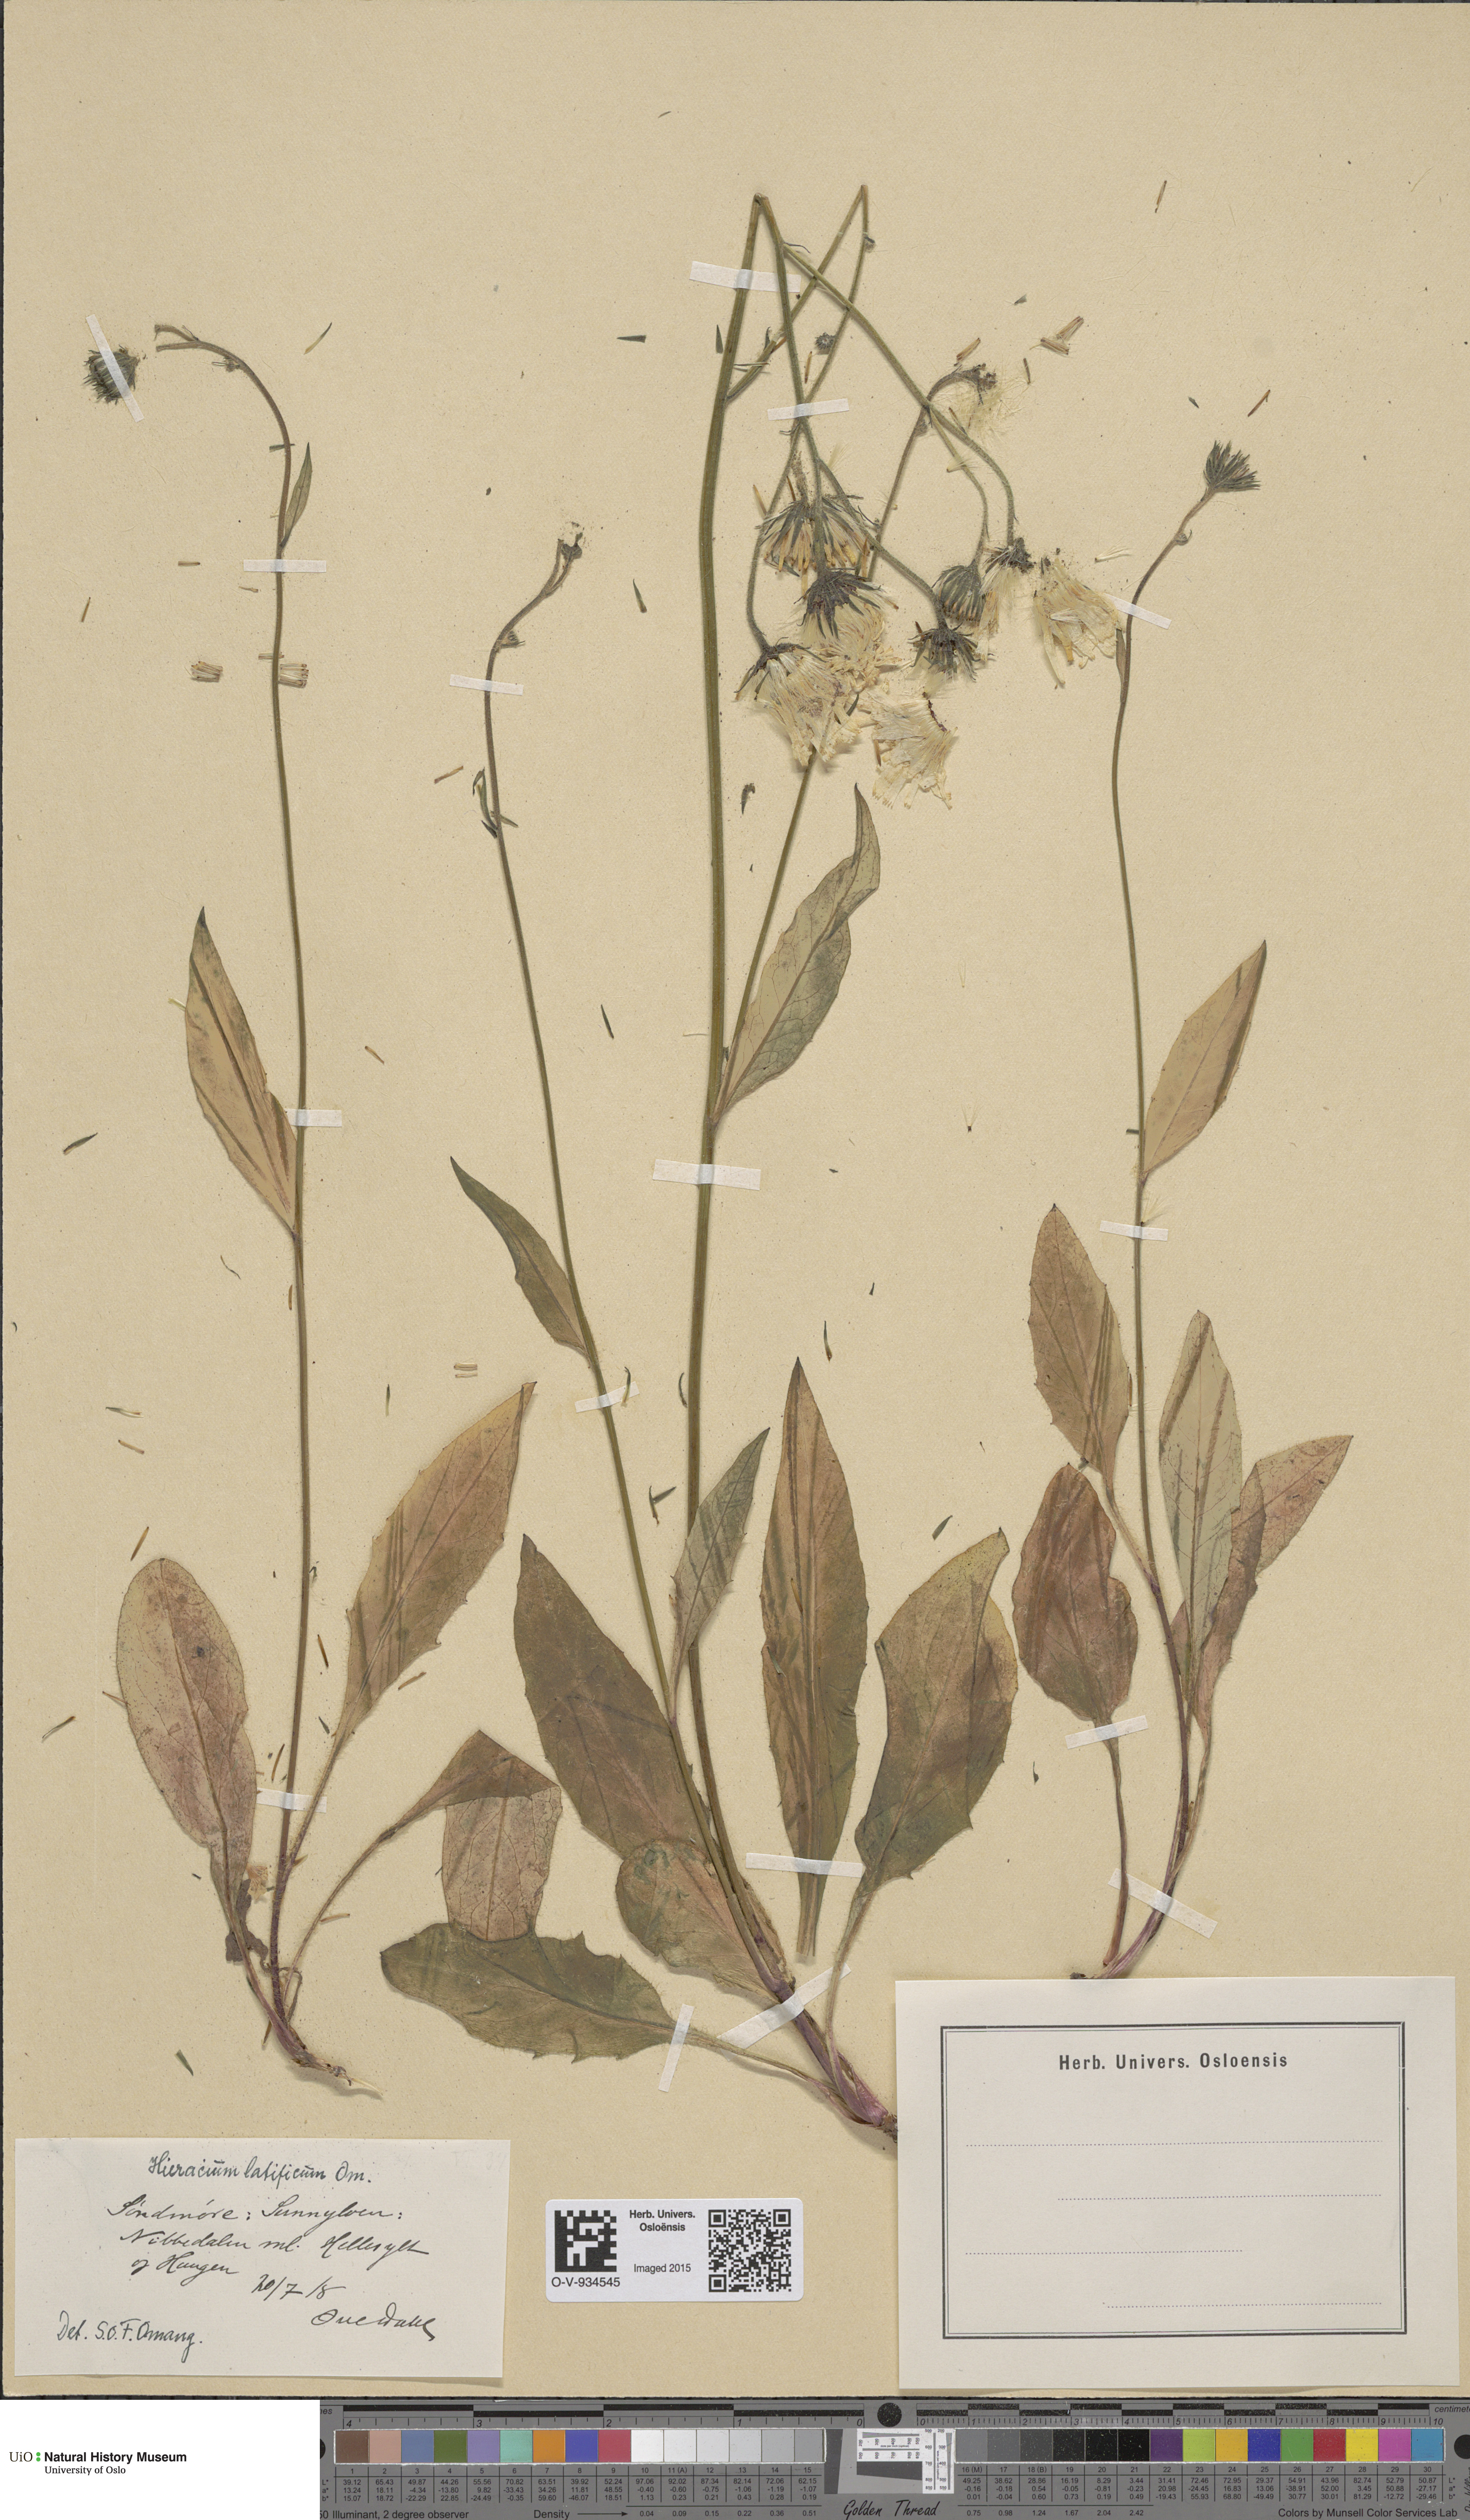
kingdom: Plantae
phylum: Tracheophyta
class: Magnoliopsida
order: Asterales
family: Asteraceae
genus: Hieracium
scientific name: Hieracium saxifragum
